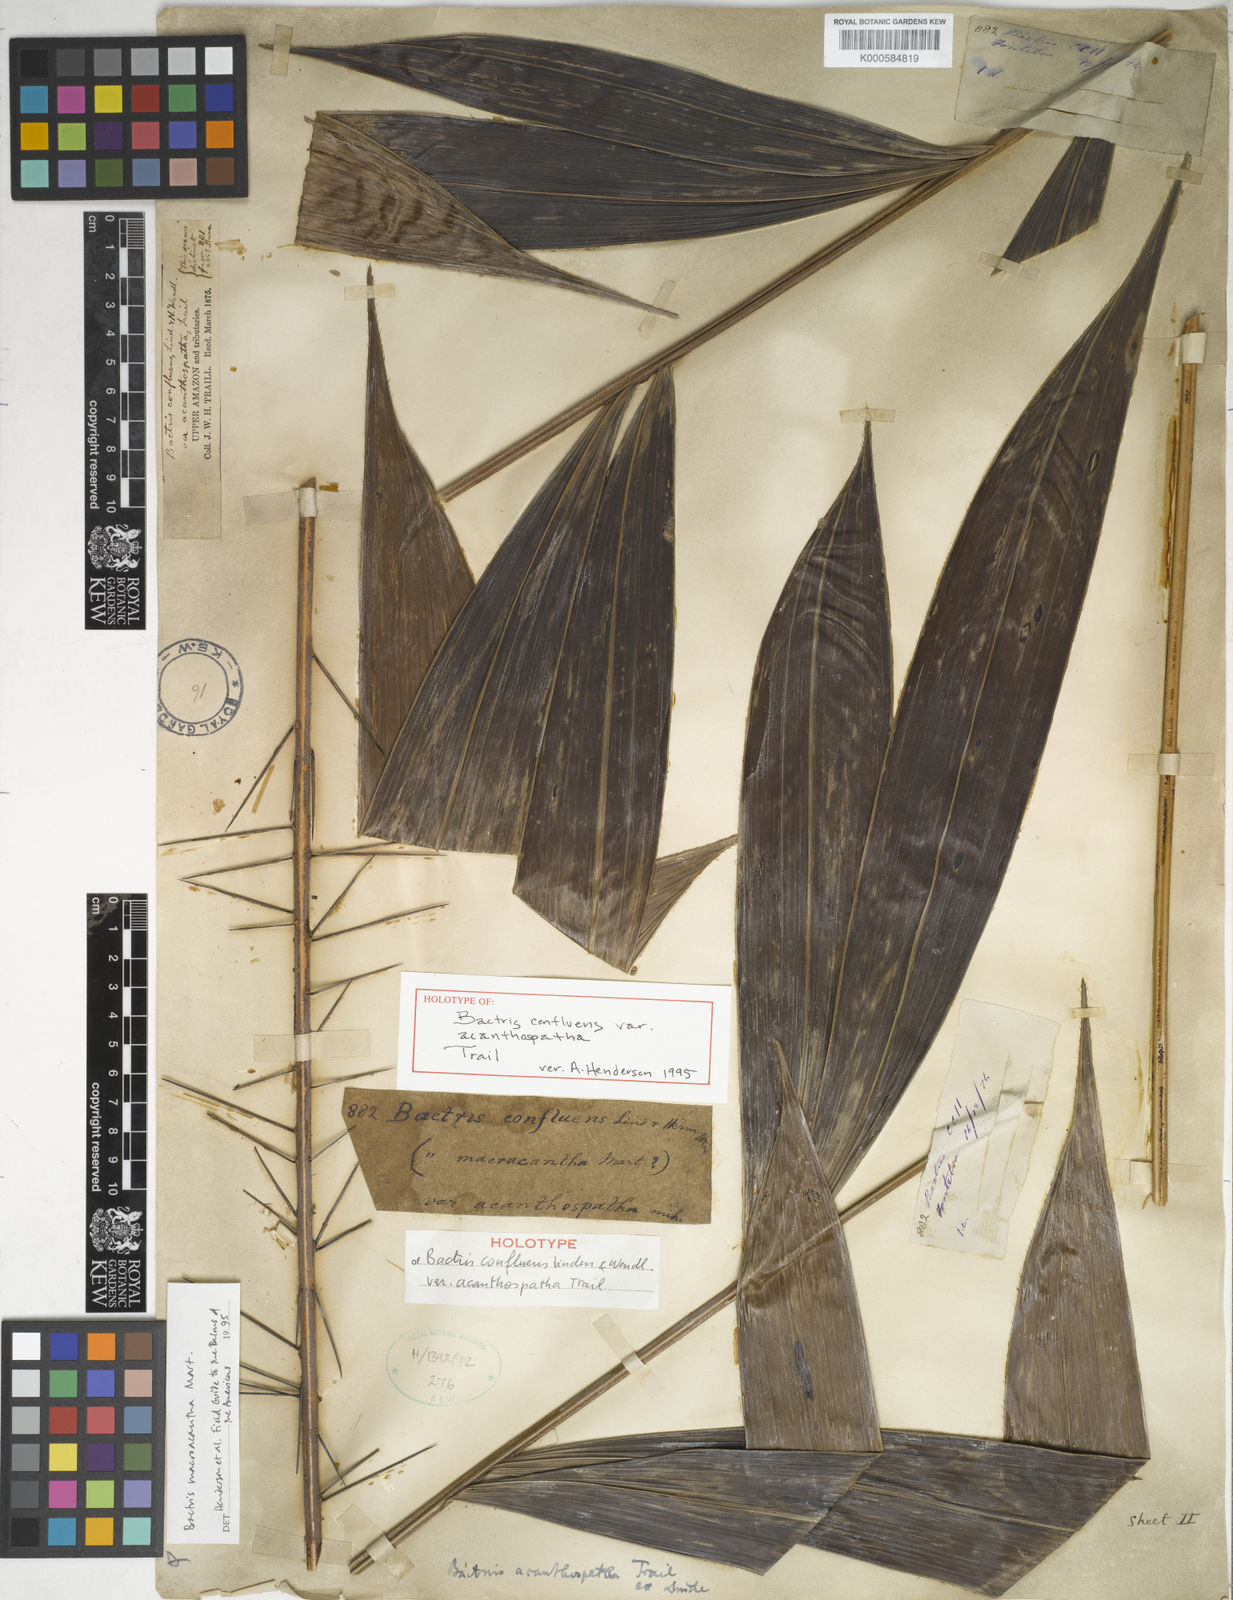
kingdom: Plantae
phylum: Tracheophyta
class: Liliopsida
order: Arecales
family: Arecaceae
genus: Bactris
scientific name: Bactris macroacantha
